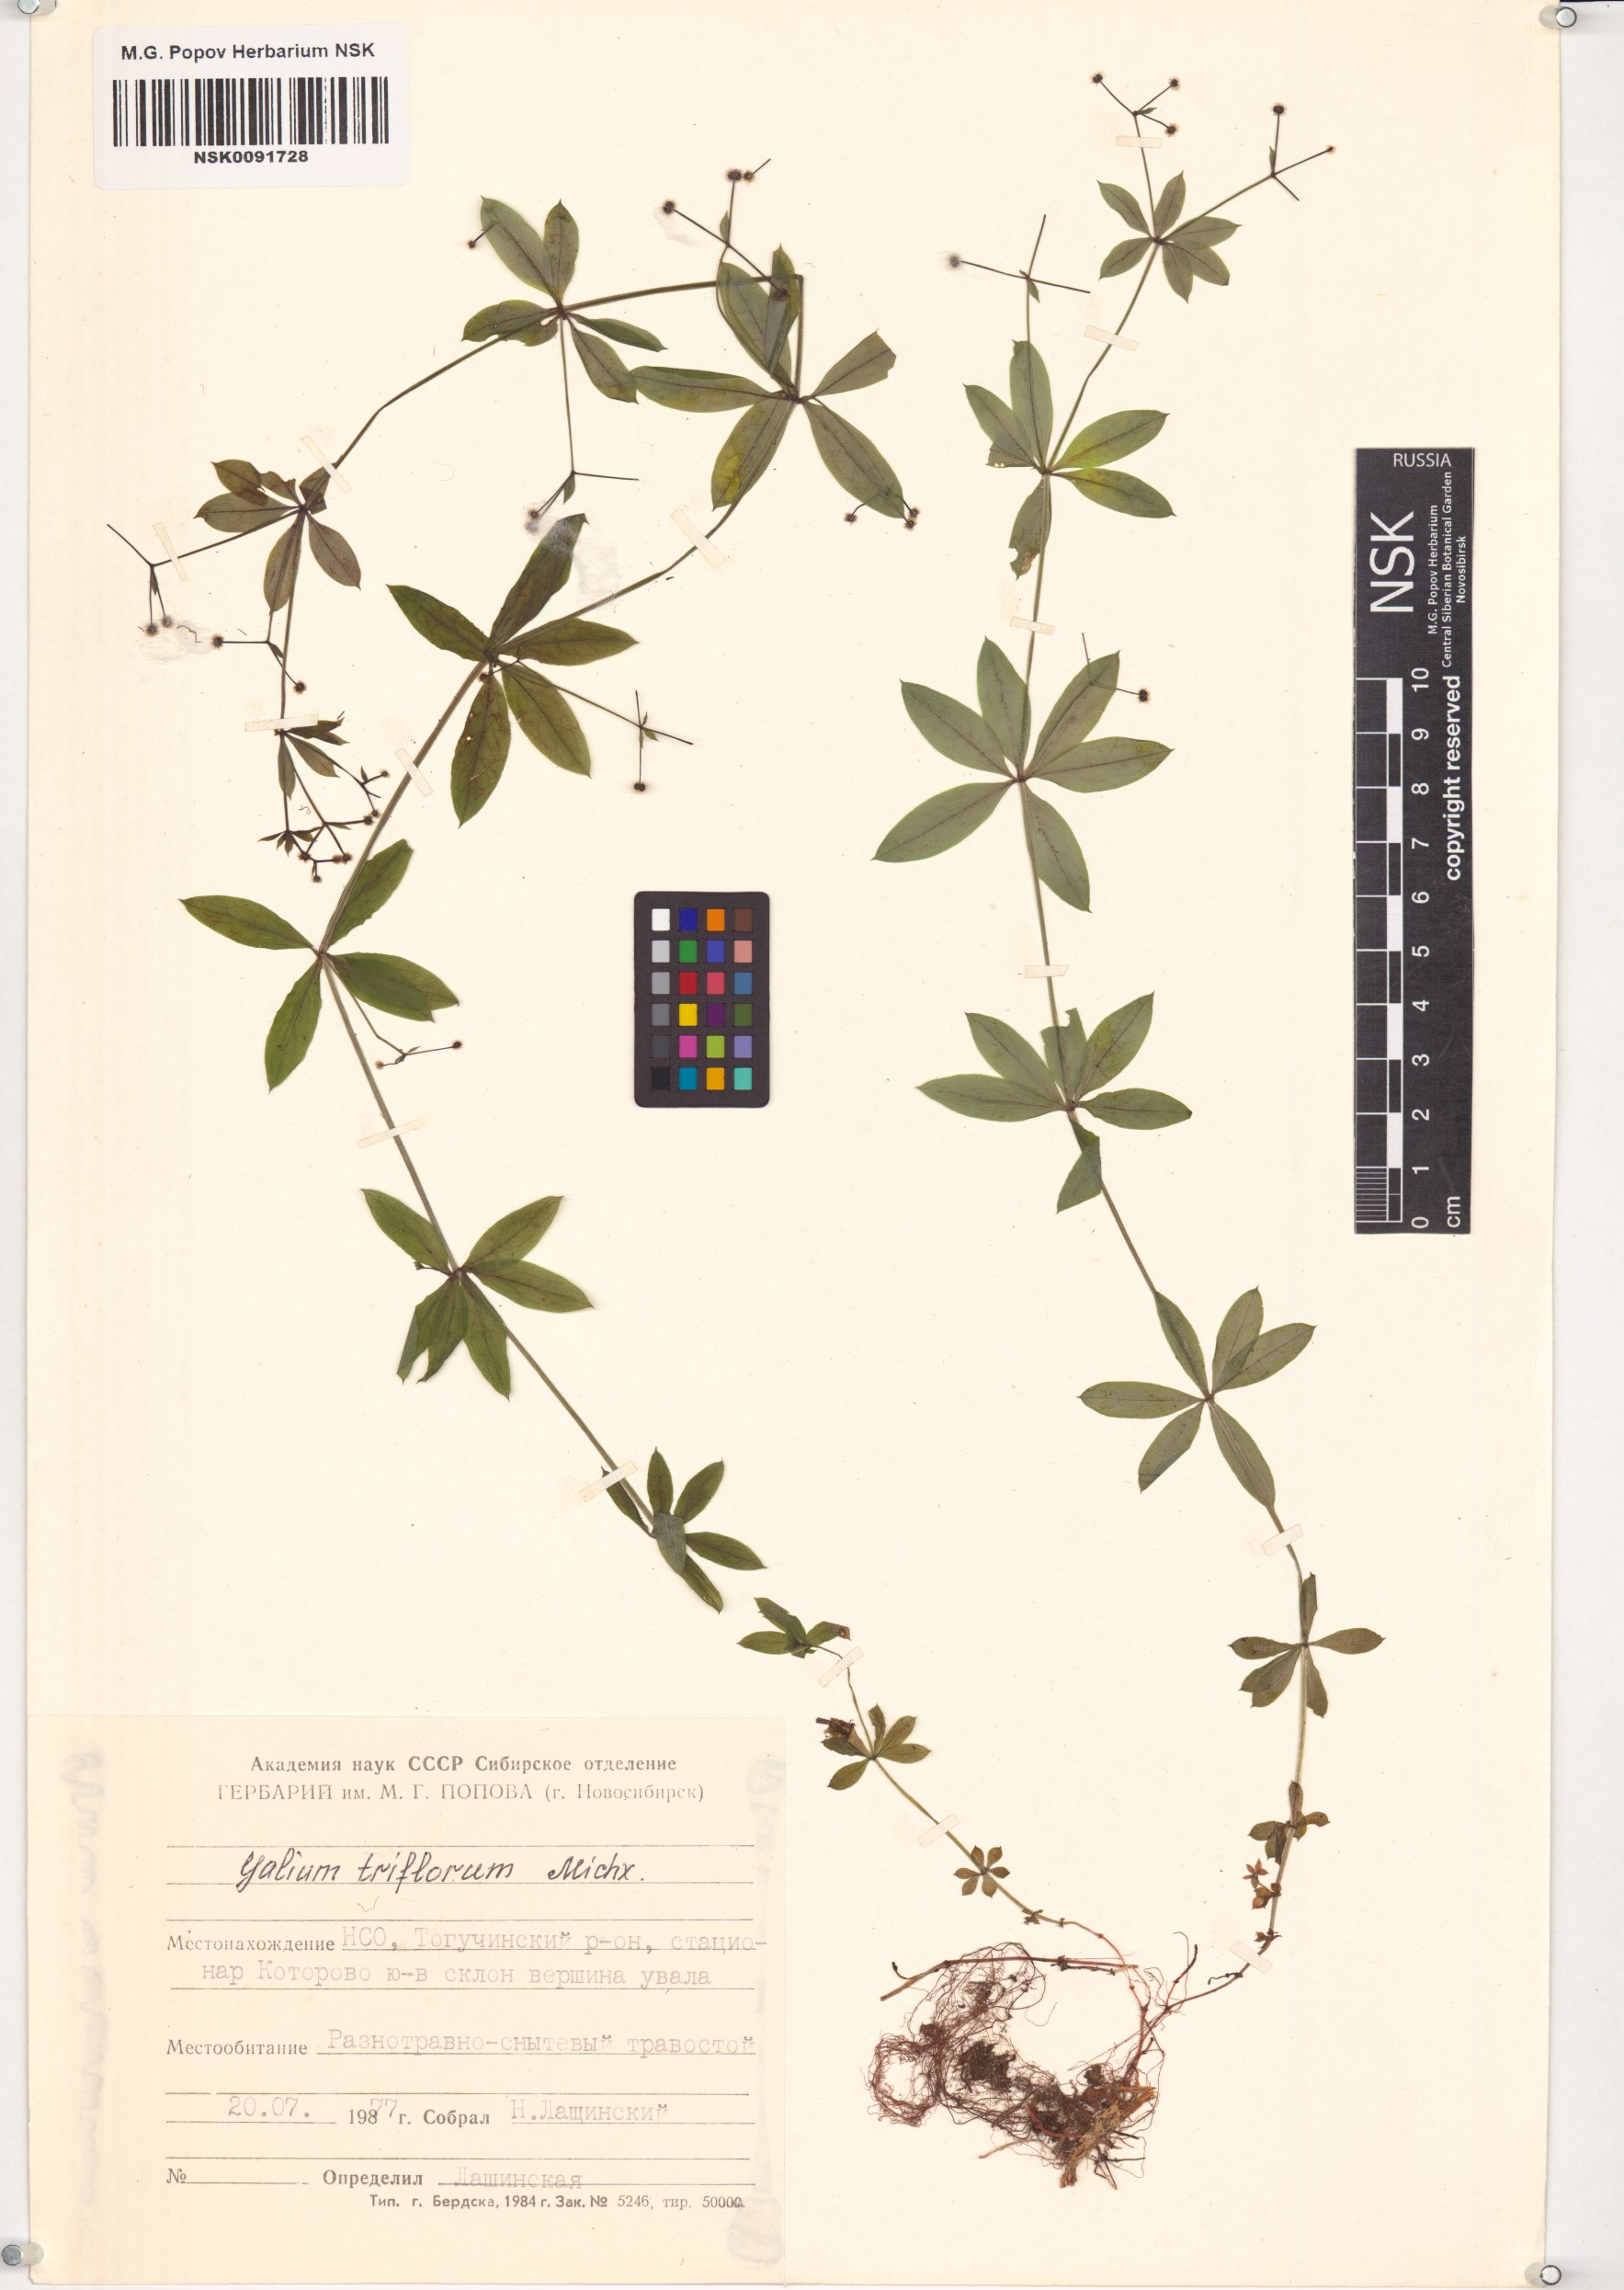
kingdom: Plantae
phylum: Tracheophyta
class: Magnoliopsida
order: Gentianales
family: Rubiaceae
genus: Galium
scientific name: Galium triflorum
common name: Fragrant bedstraw
